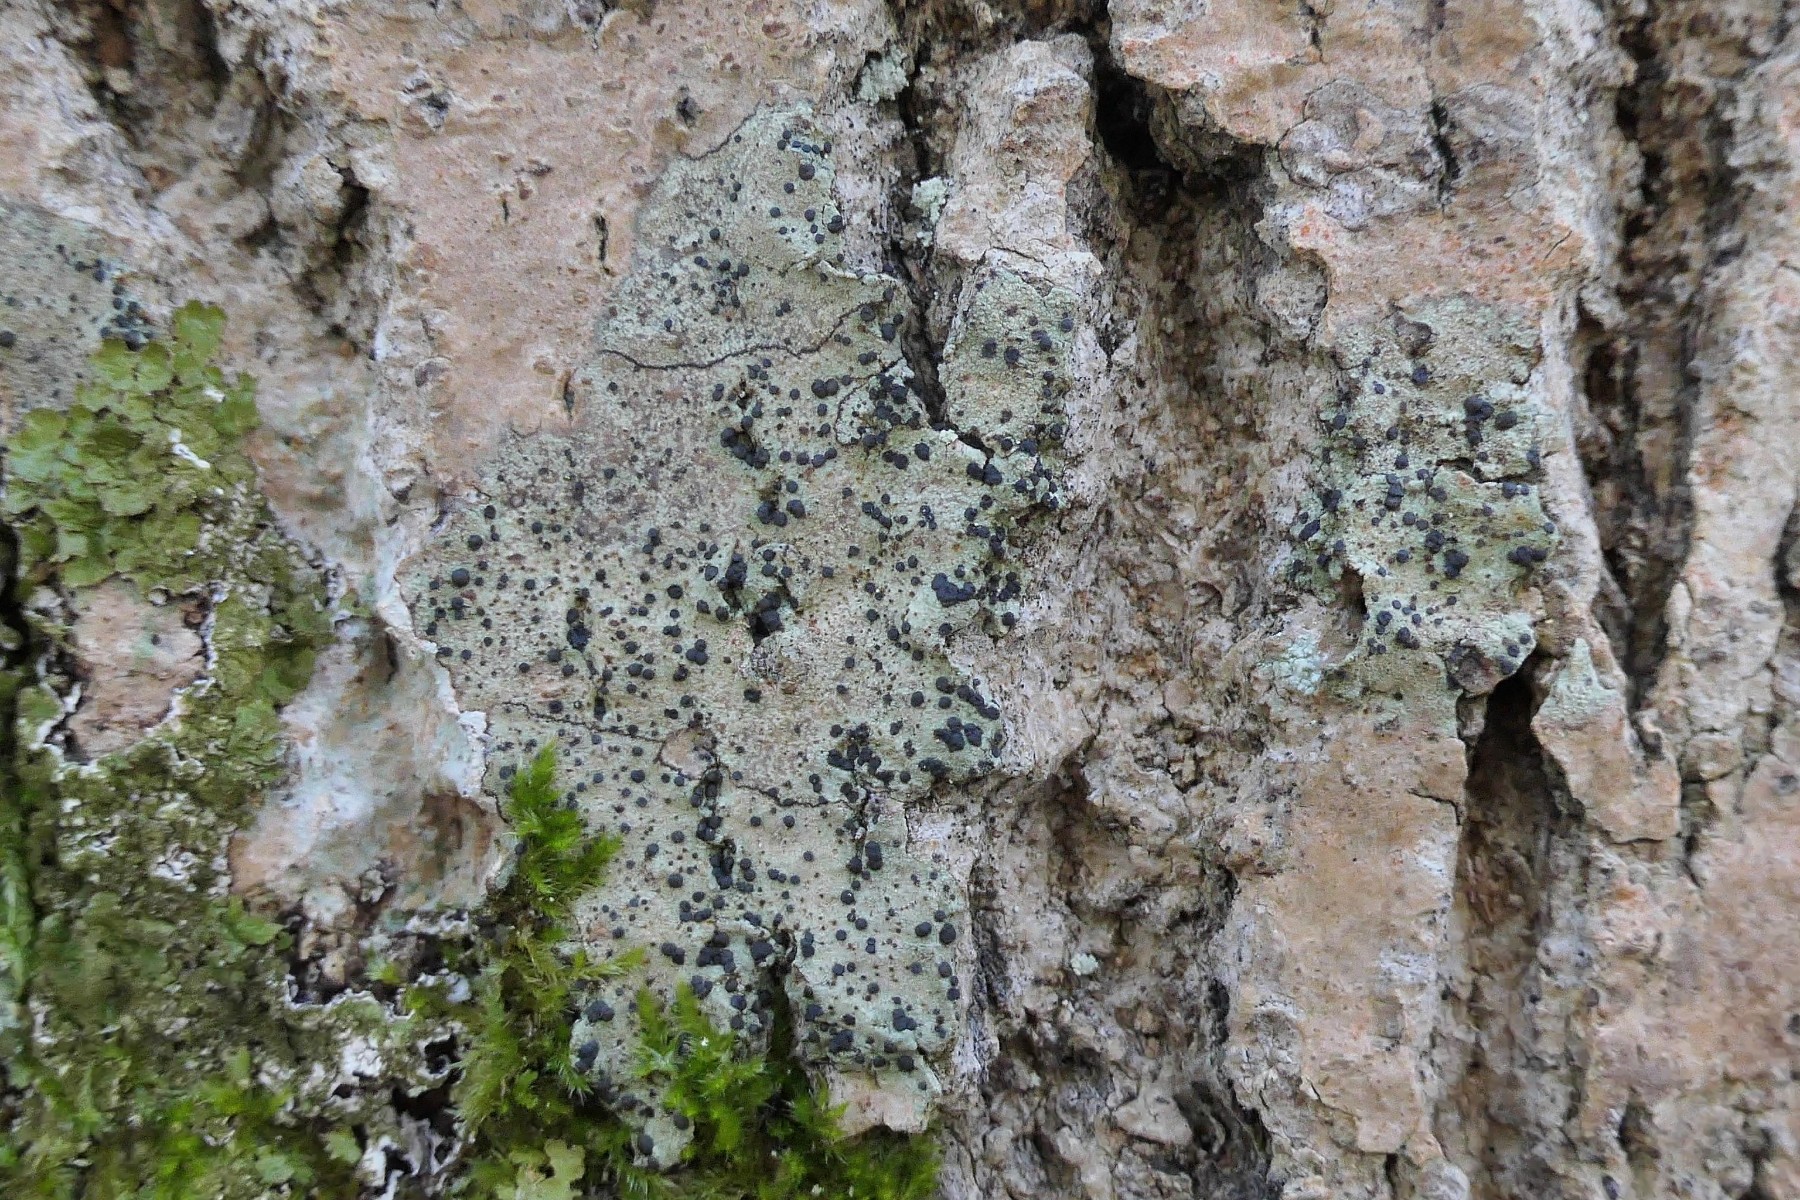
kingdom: Fungi
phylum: Ascomycota
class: Lecanoromycetes
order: Lecanorales
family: Lecanoraceae
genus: Lecidella
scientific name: Lecidella elaeochroma
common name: grågrøn skivelav
